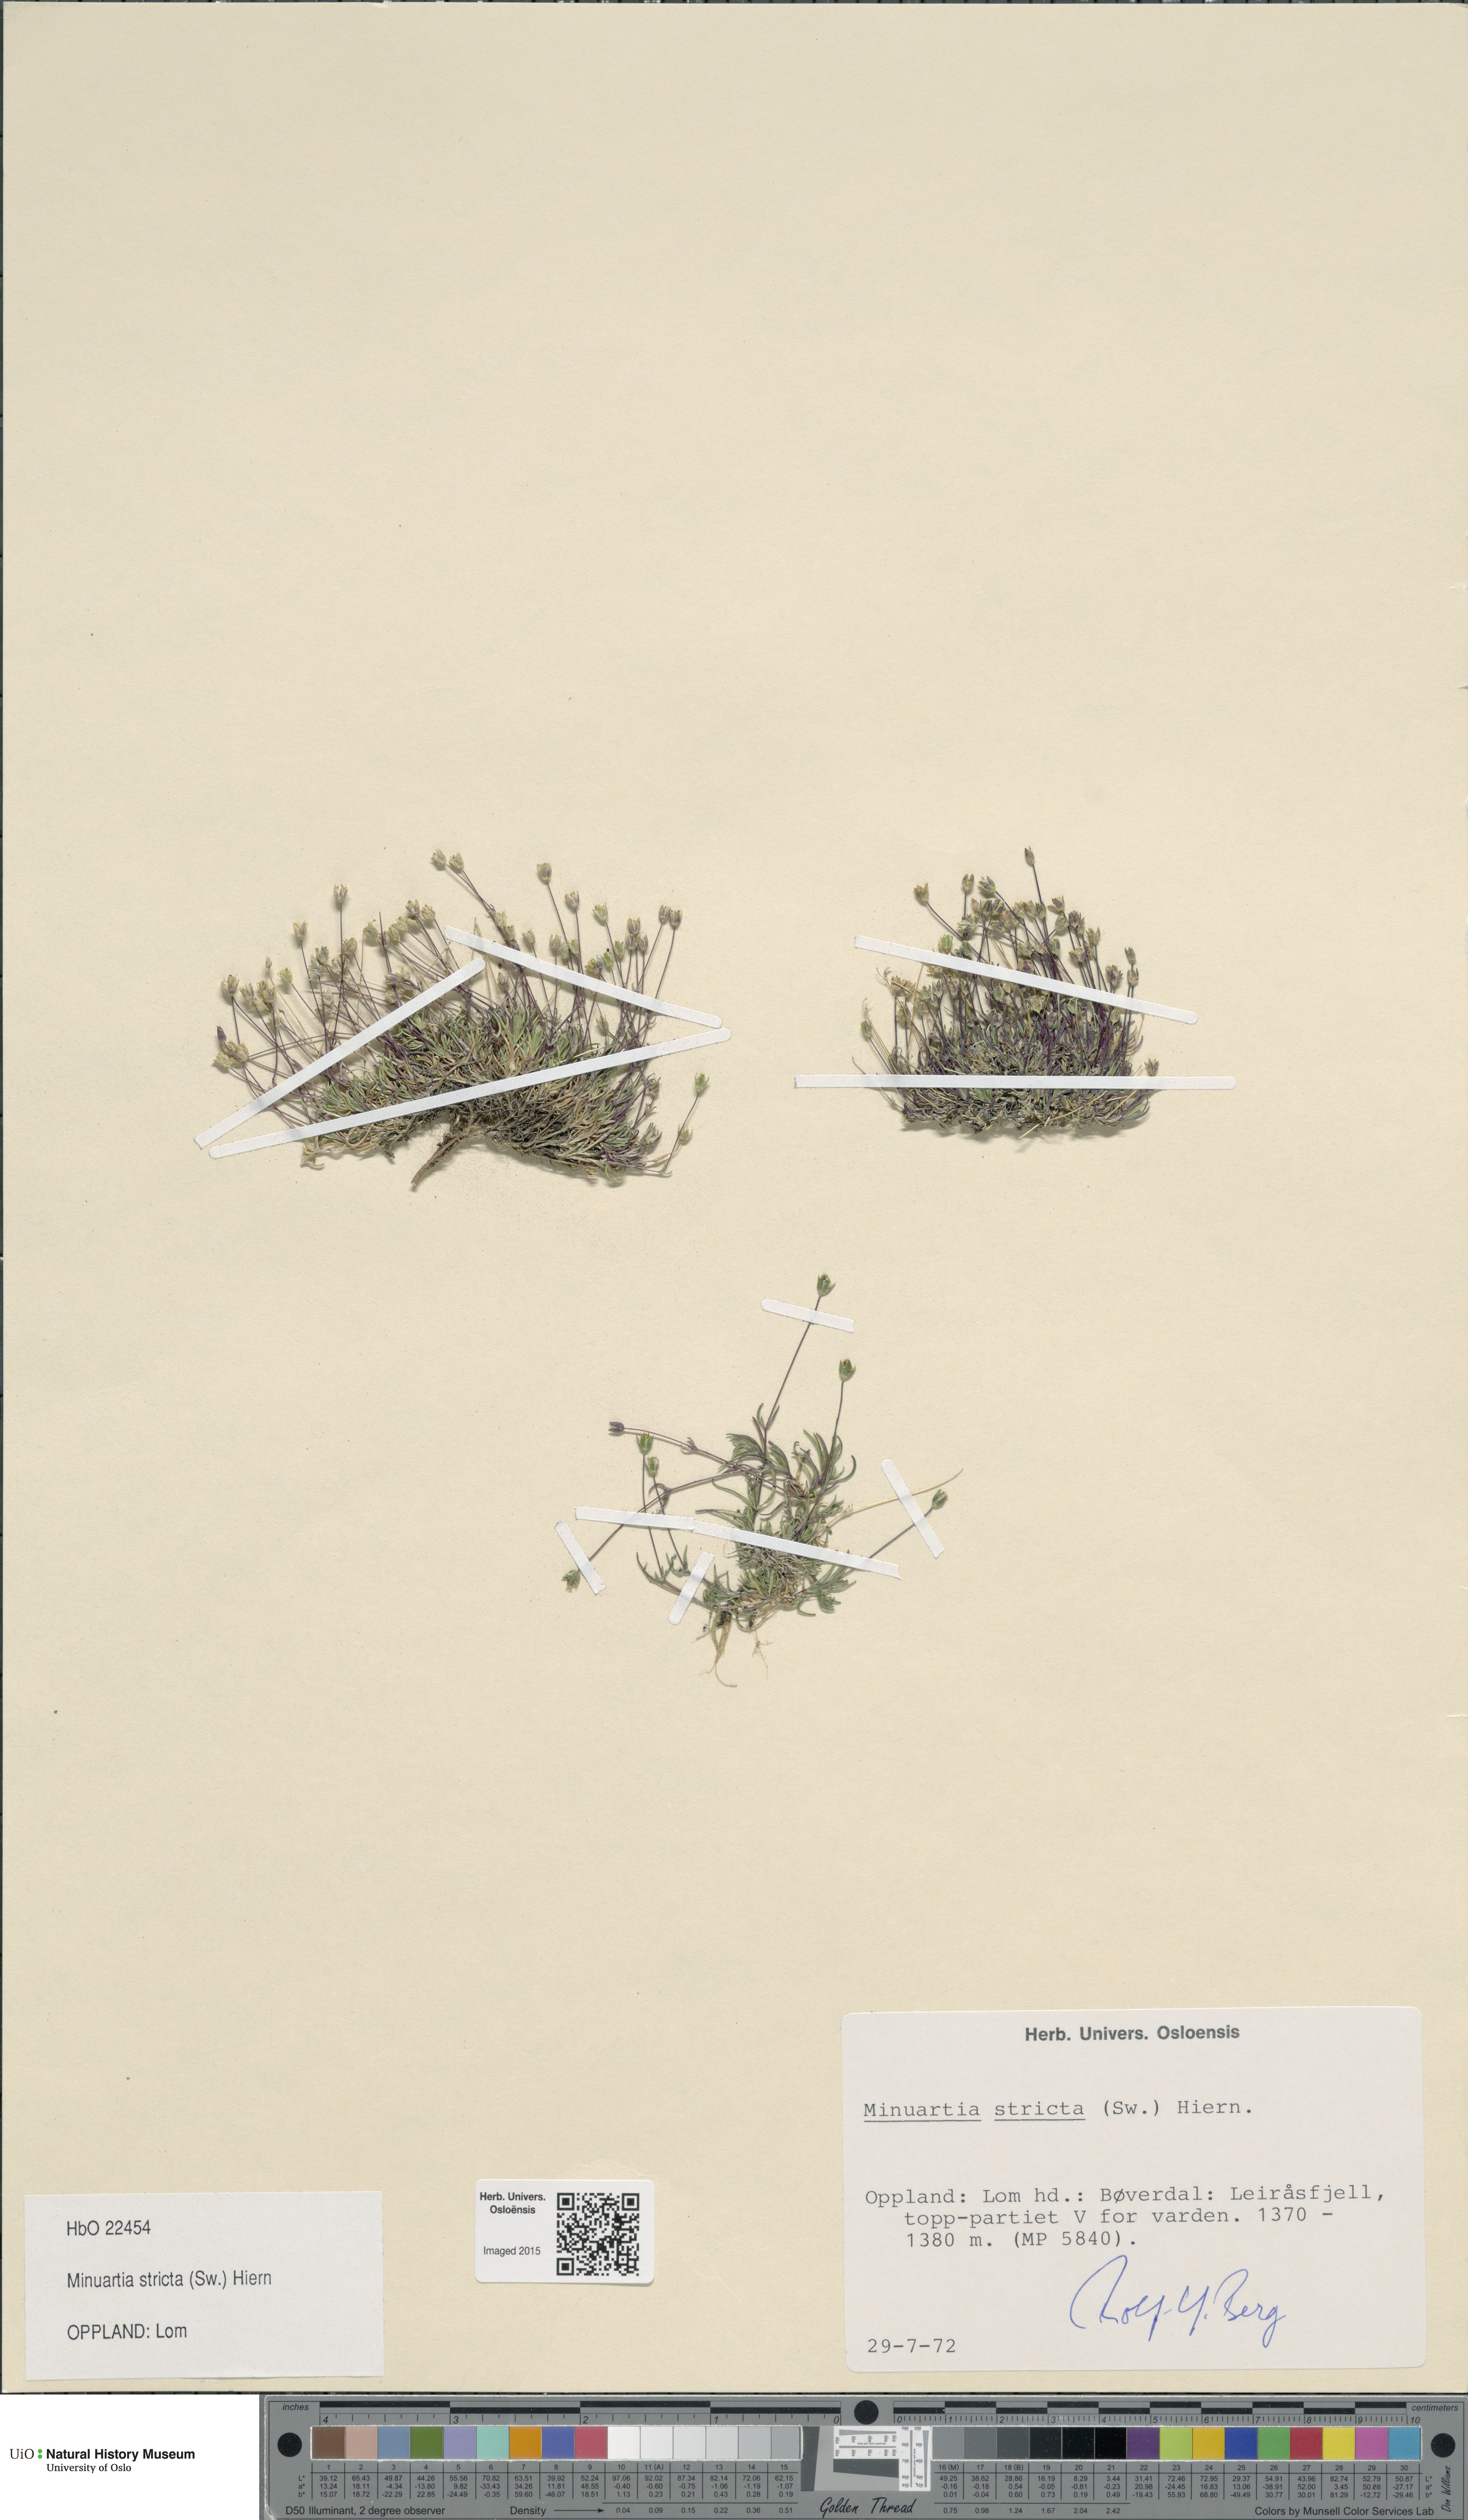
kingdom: Plantae
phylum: Tracheophyta
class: Magnoliopsida
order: Caryophyllales
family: Caryophyllaceae
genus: Sabulina
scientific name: Sabulina stricta
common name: Bog sandwort
